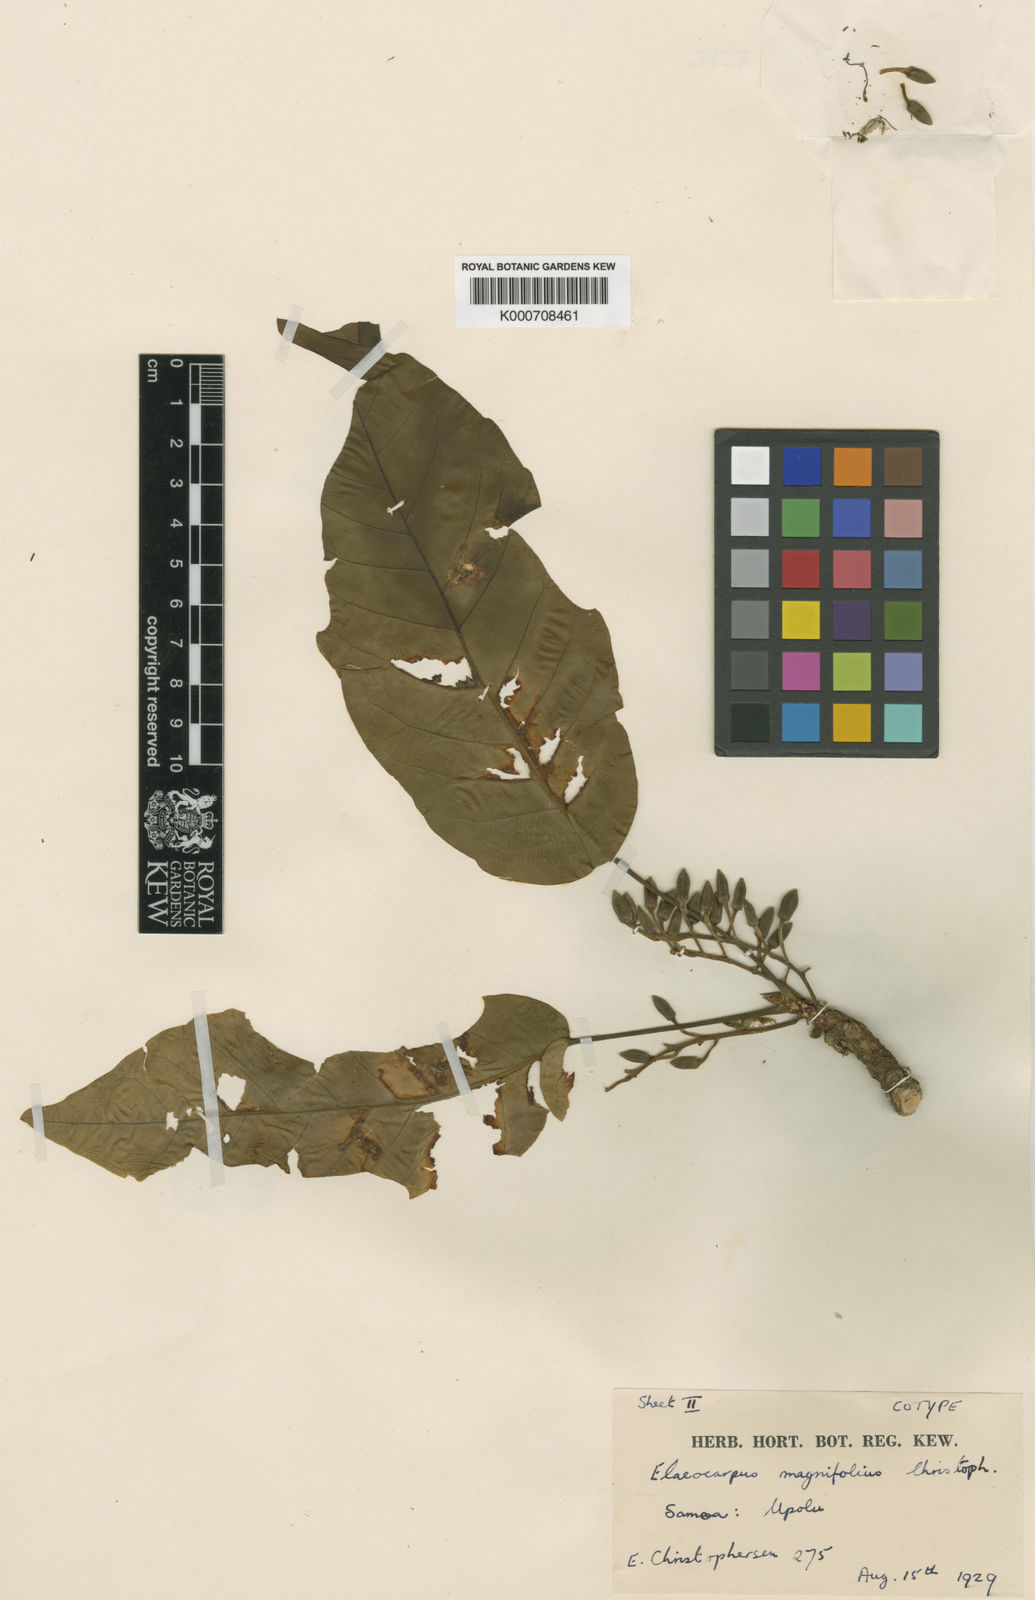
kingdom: Plantae
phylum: Tracheophyta
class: Magnoliopsida
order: Oxalidales
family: Elaeocarpaceae
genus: Elaeocarpus
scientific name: Elaeocarpus magnifolius
